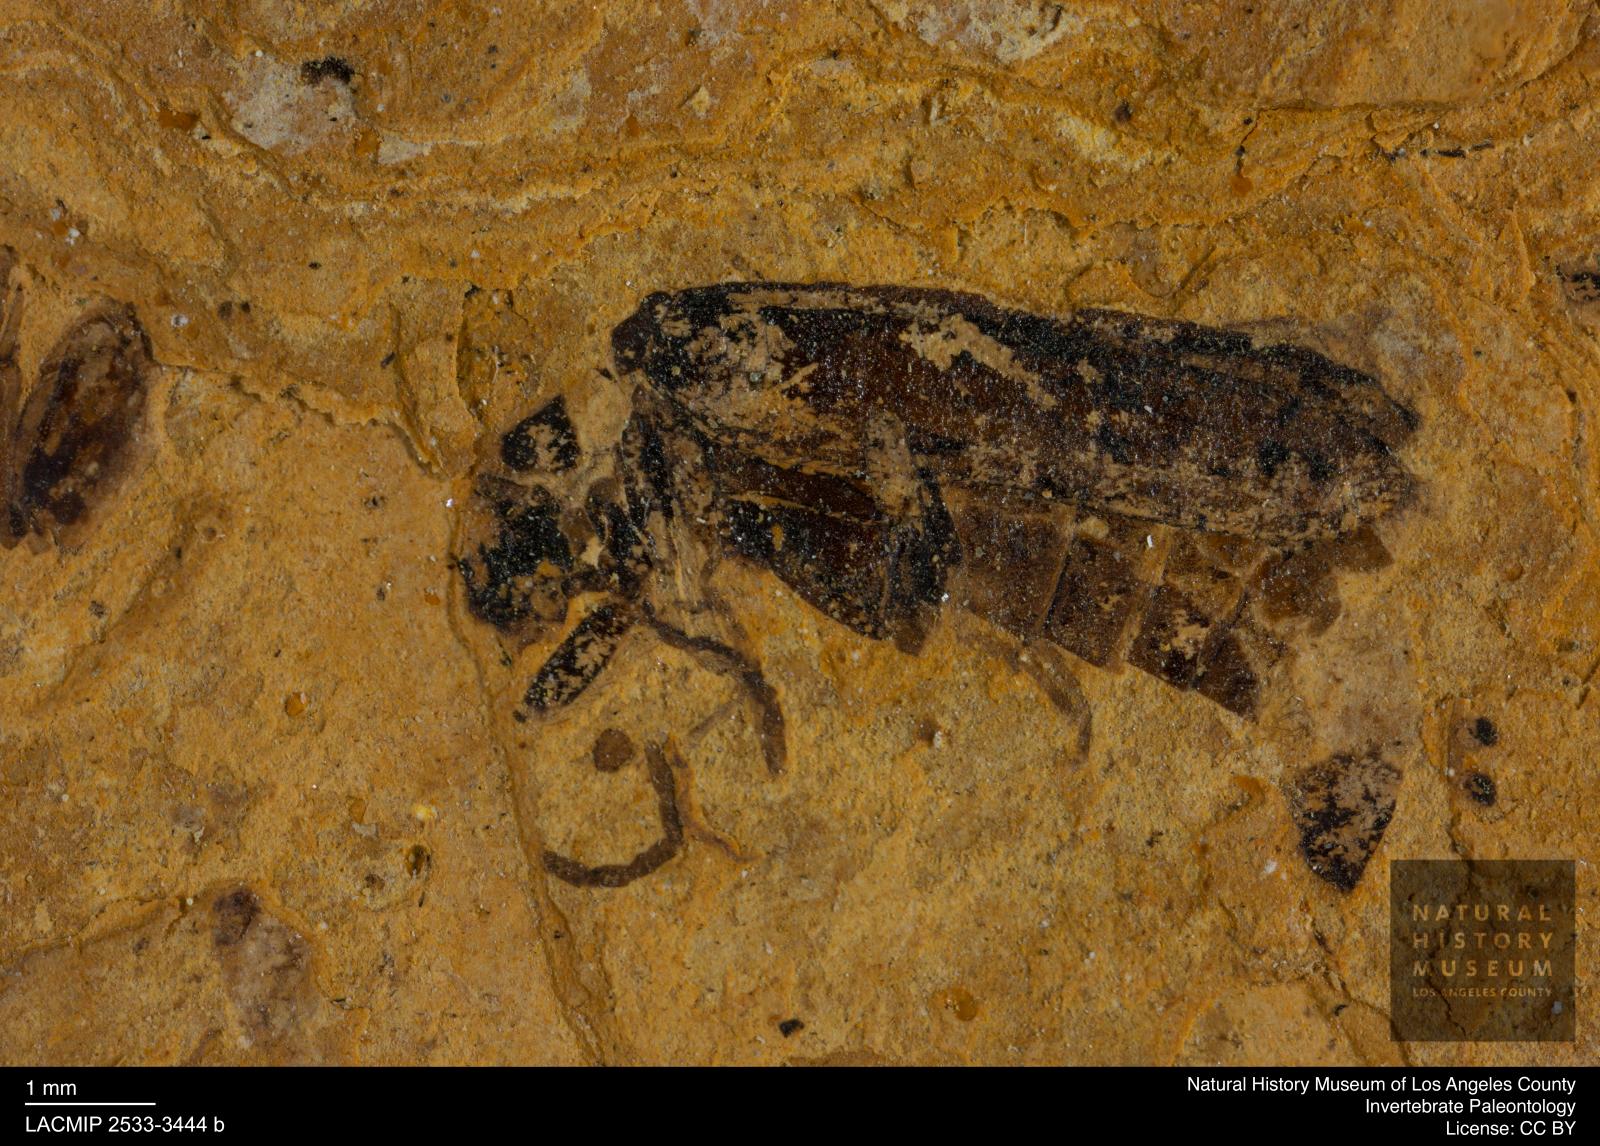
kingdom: Animalia
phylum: Arthropoda
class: Insecta
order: Coleoptera
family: Cantharidae
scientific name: Cantharidae
